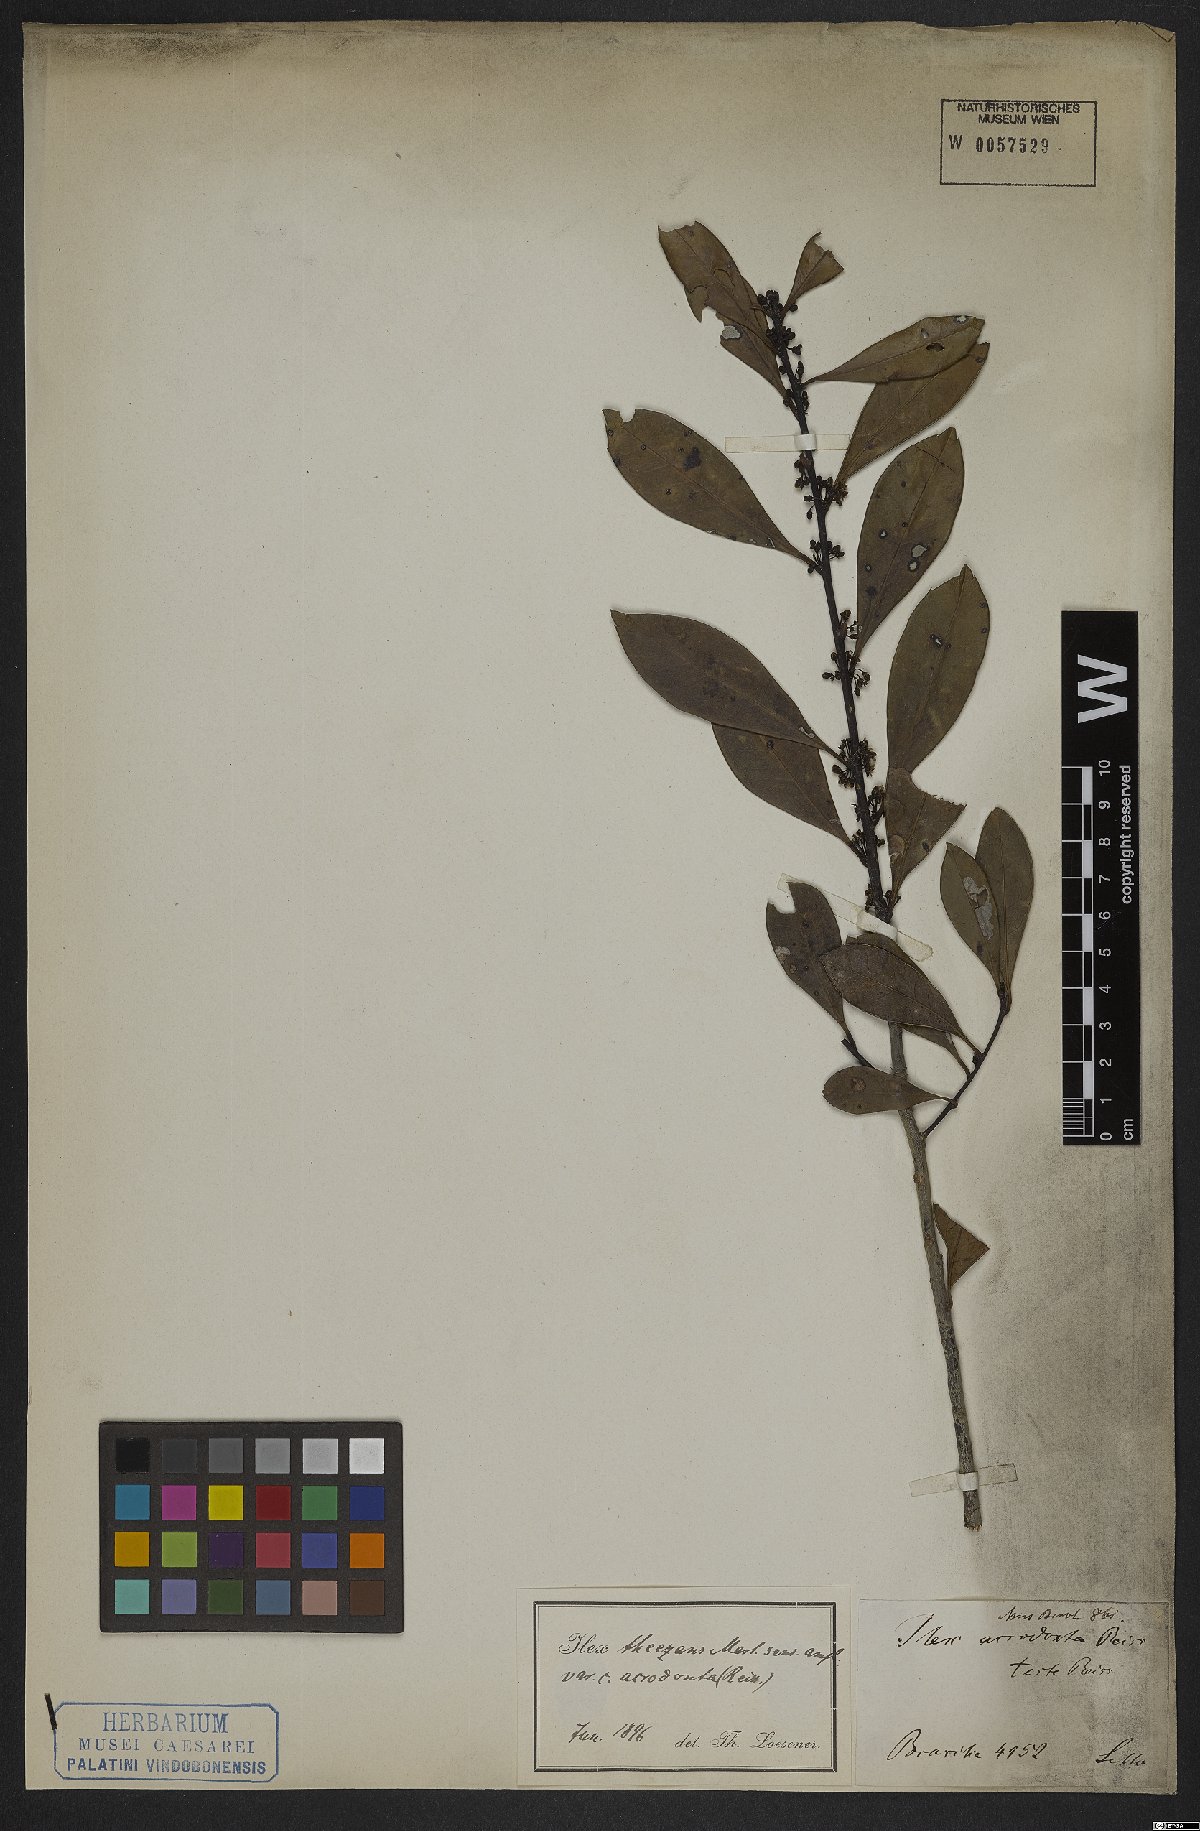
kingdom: Plantae
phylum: Tracheophyta
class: Magnoliopsida
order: Aquifoliales
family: Aquifoliaceae
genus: Ilex
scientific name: Ilex theezans
